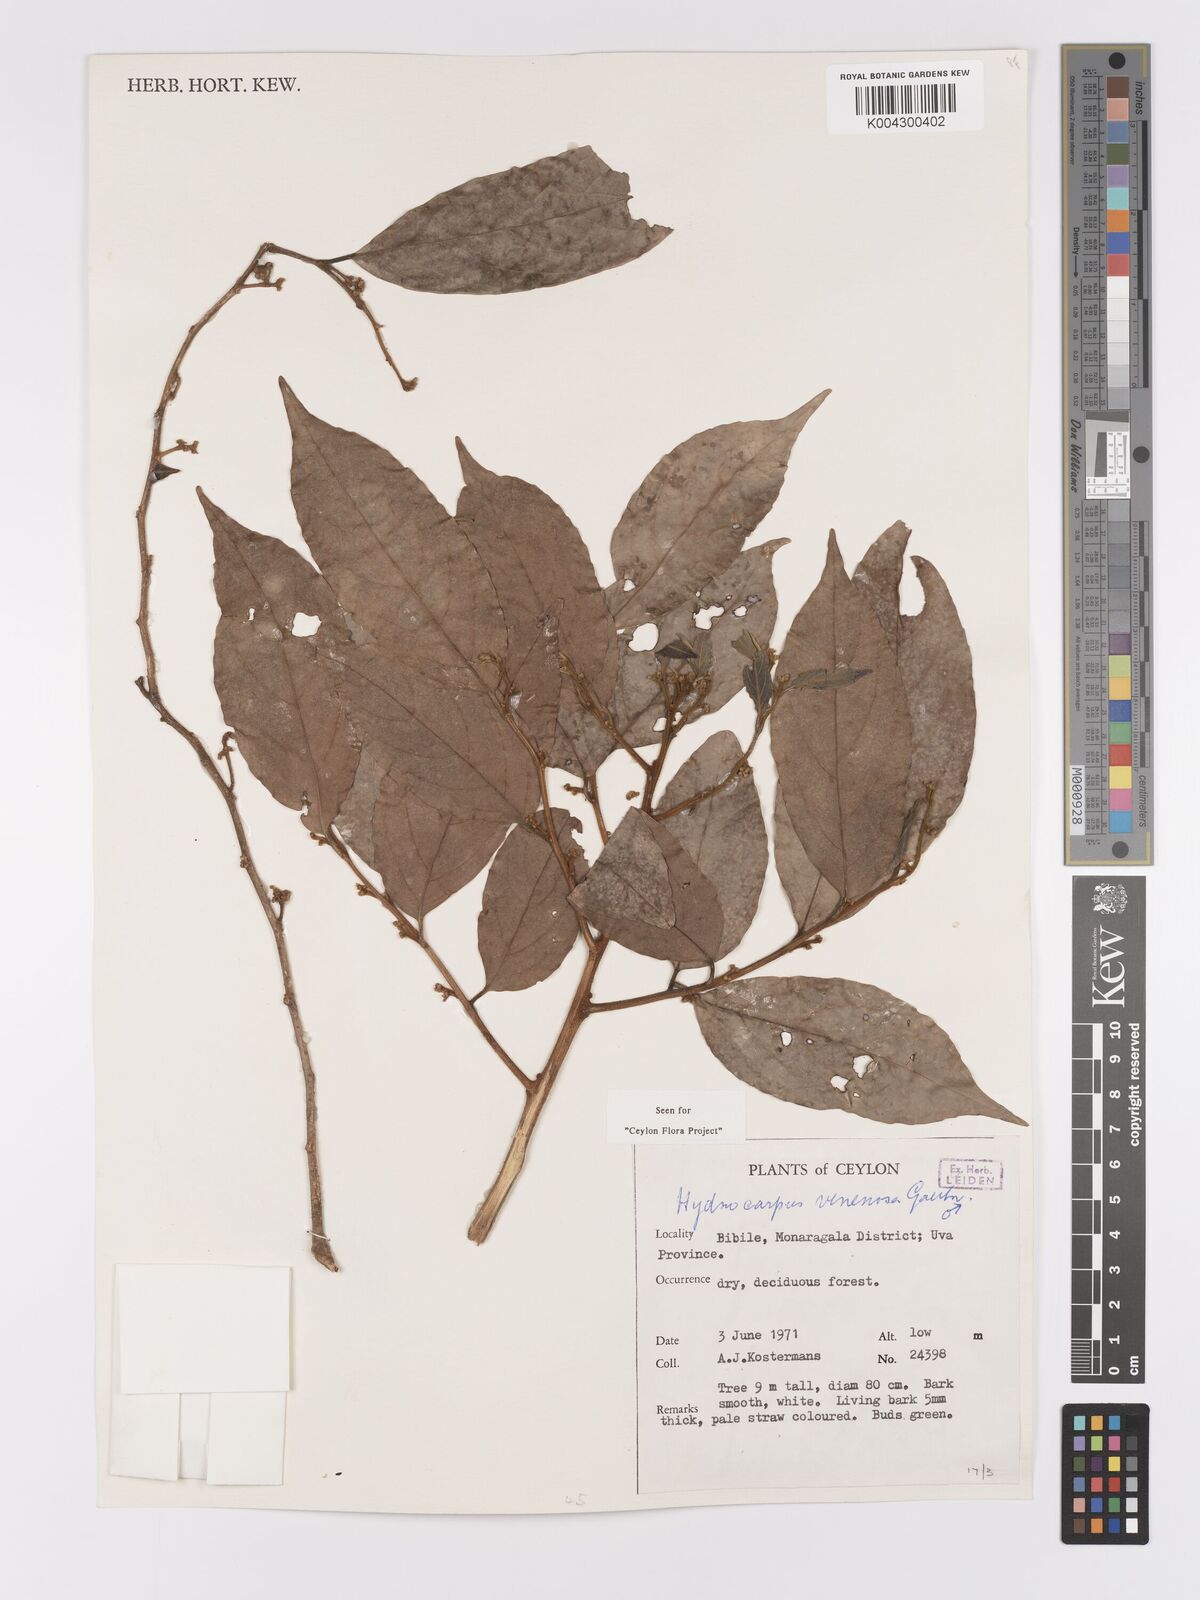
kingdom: Plantae
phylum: Tracheophyta
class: Magnoliopsida
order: Malpighiales
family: Achariaceae
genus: Hydnocarpus
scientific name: Hydnocarpus venenatus
